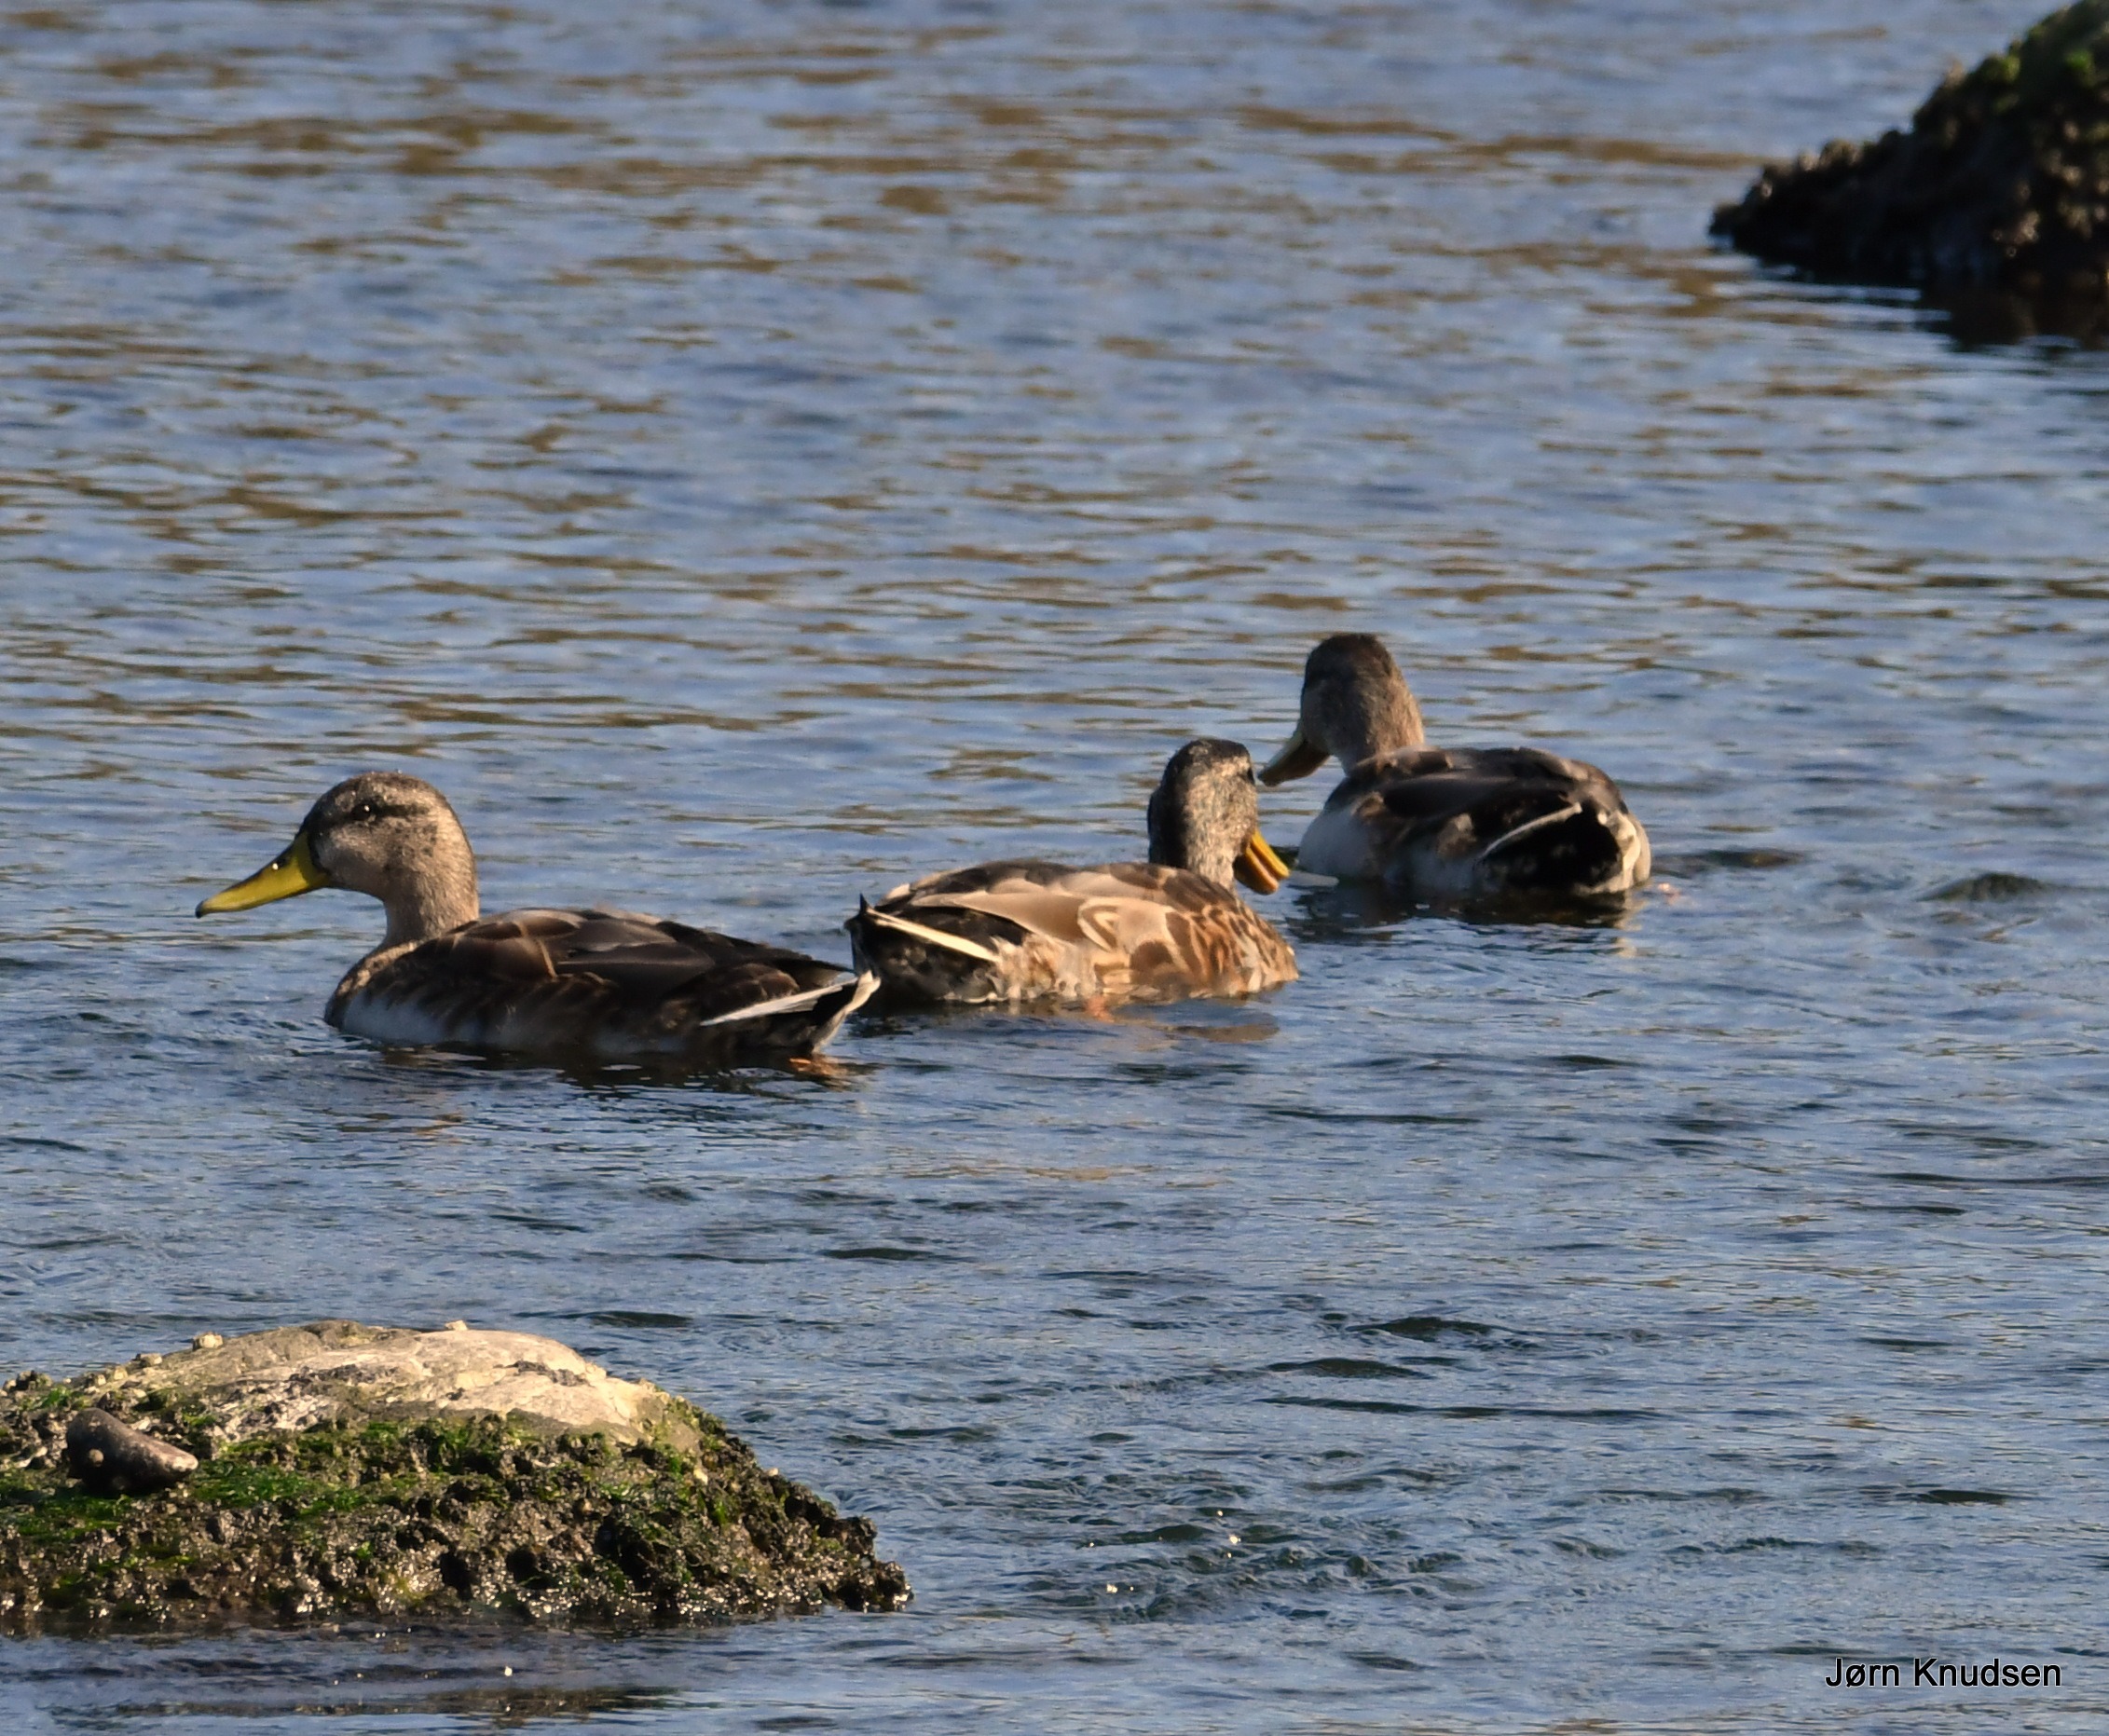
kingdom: Animalia
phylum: Chordata
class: Aves
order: Anseriformes
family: Anatidae
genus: Anas
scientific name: Anas platyrhynchos
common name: Gråand
